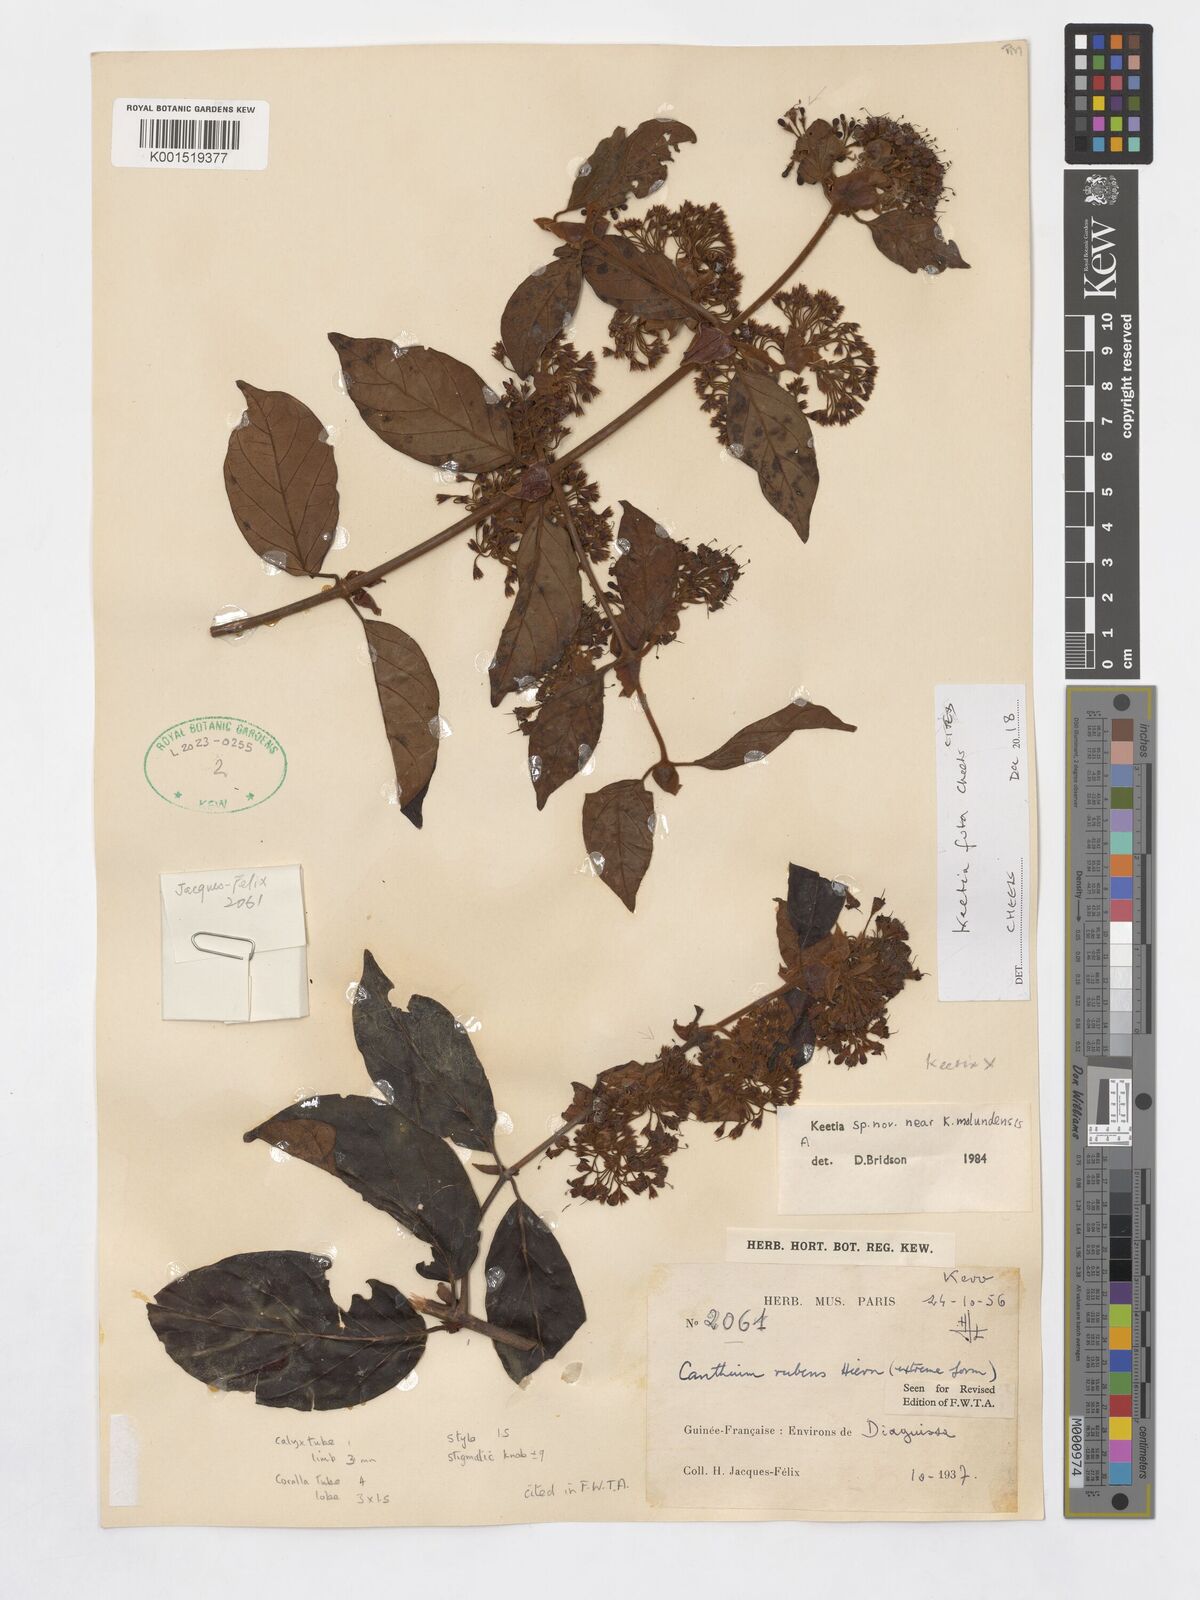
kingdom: Plantae
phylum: Tracheophyta
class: Magnoliopsida
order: Gentianales
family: Rubiaceae
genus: Keetia
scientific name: Keetia futa
